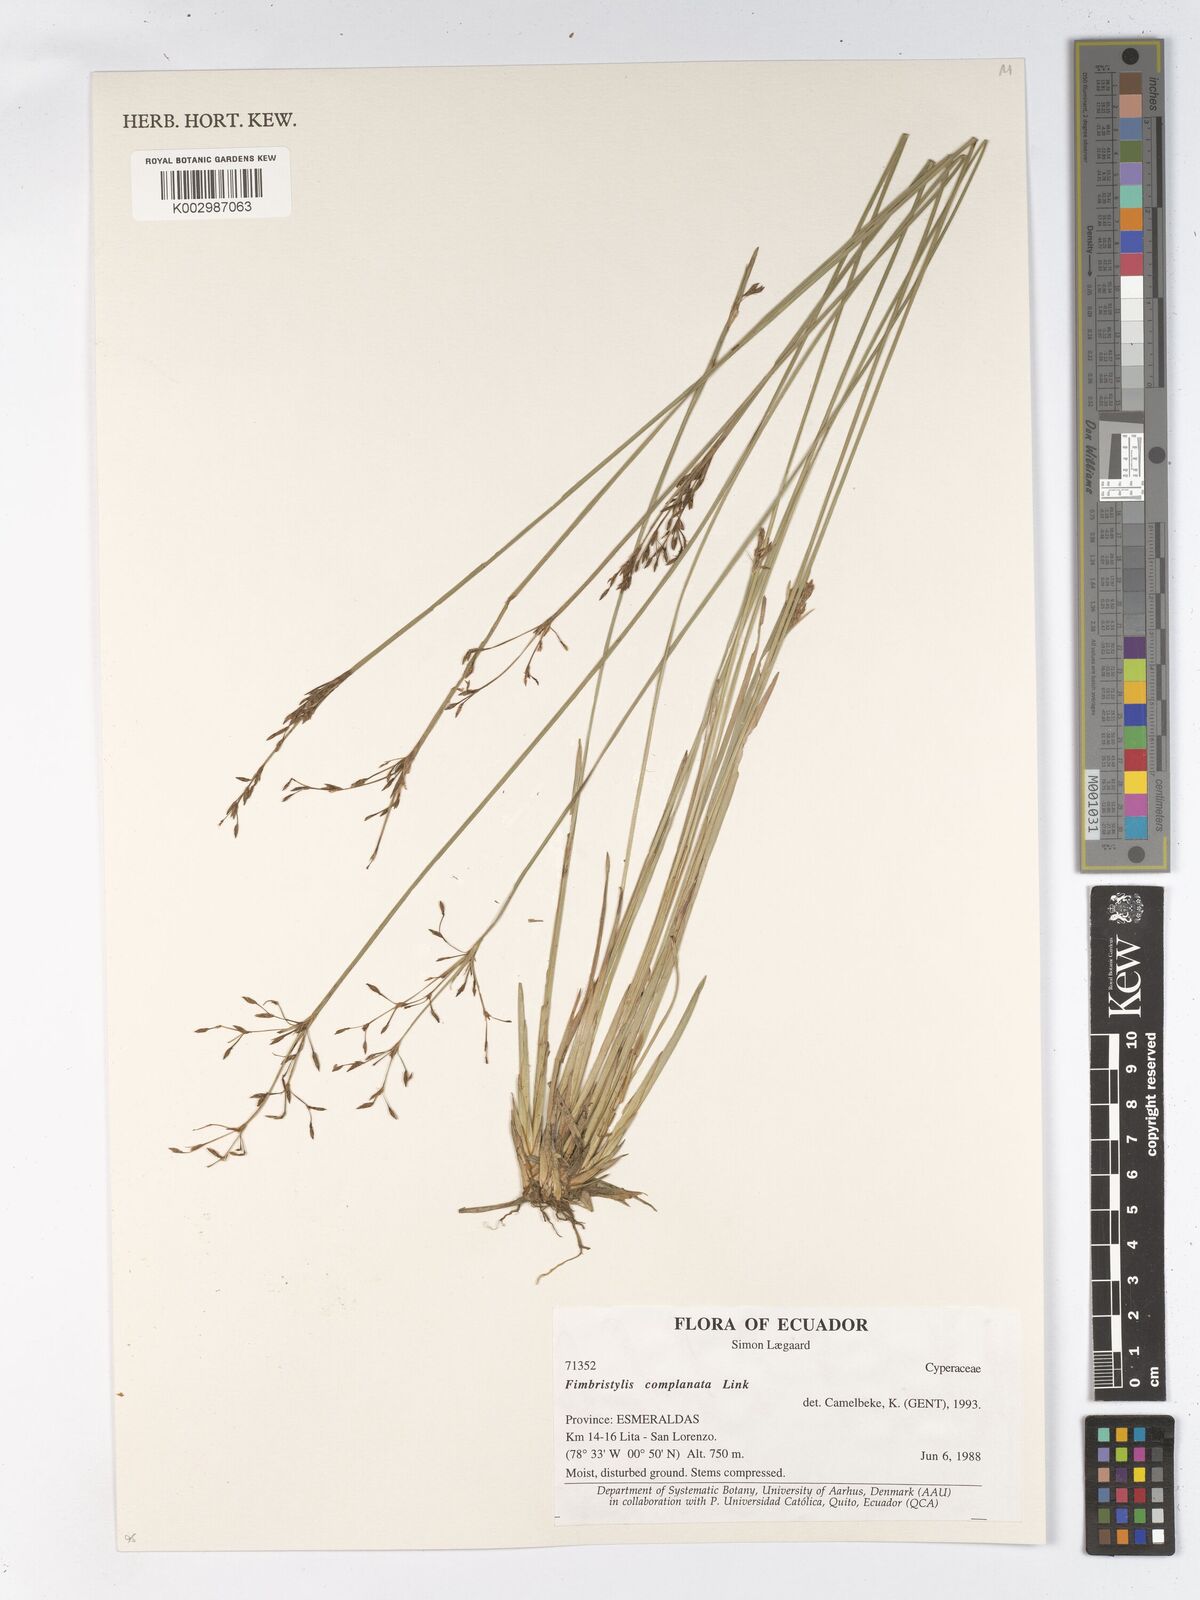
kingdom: Plantae
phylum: Tracheophyta
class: Liliopsida
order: Poales
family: Cyperaceae
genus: Fimbristylis
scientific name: Fimbristylis complanata
